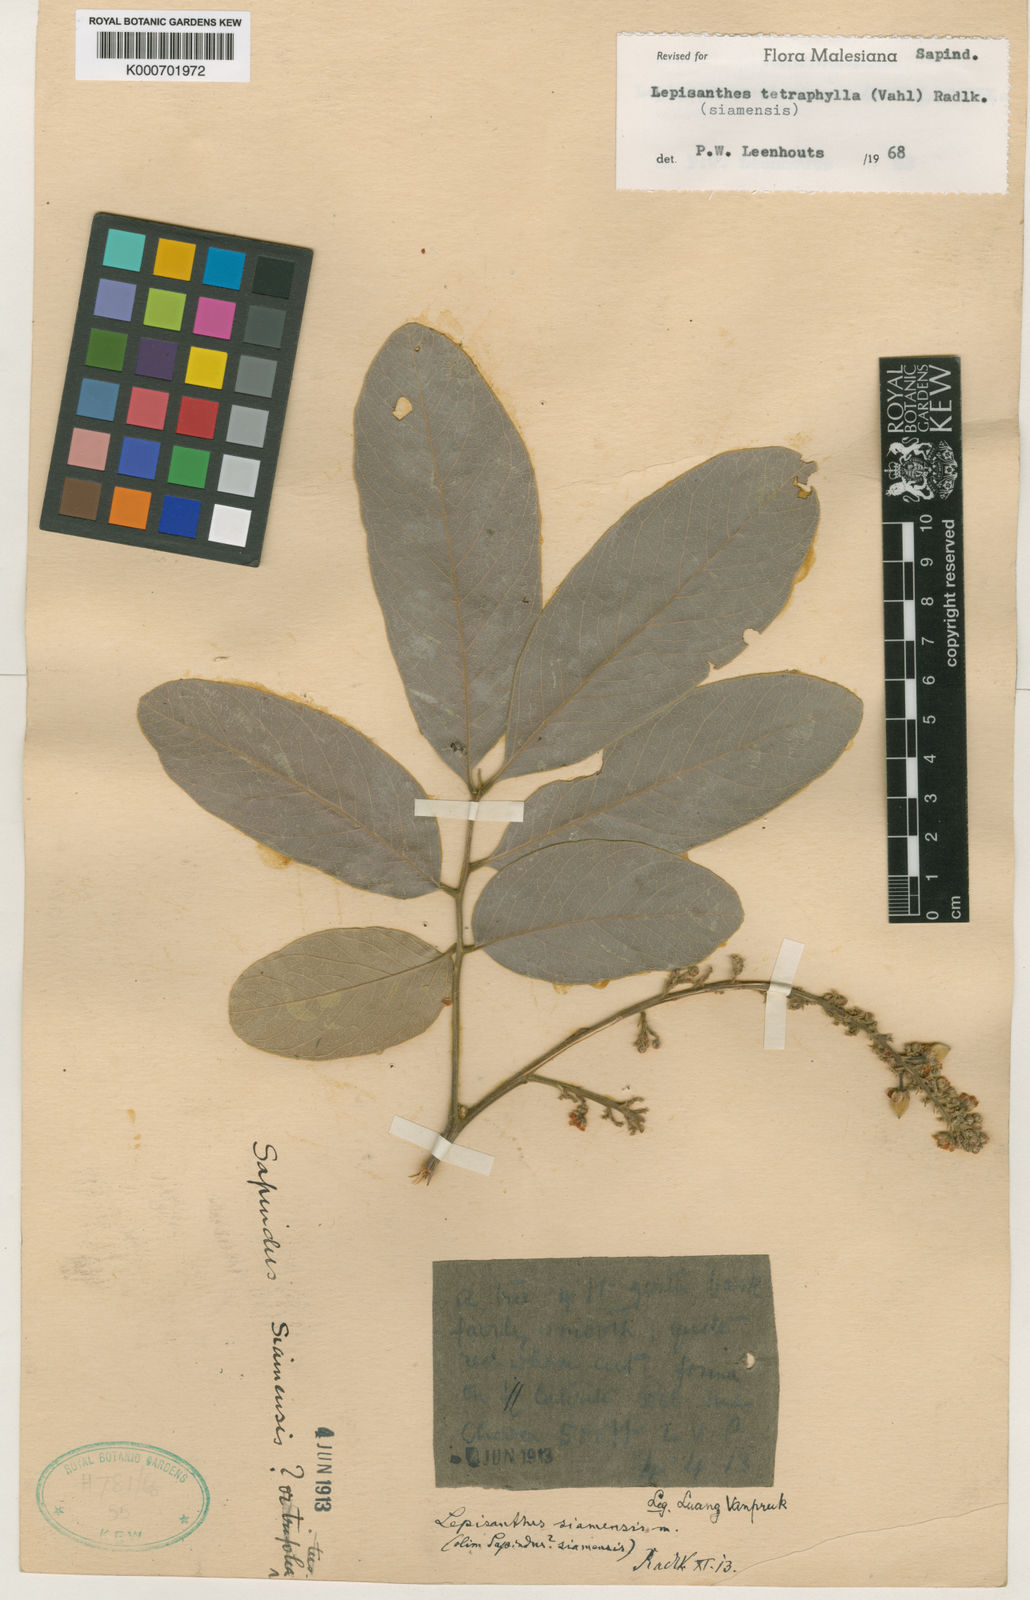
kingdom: Plantae
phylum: Tracheophyta
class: Magnoliopsida
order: Sapindales
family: Sapindaceae
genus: Lepisanthes
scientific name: Lepisanthes tetraphylla
